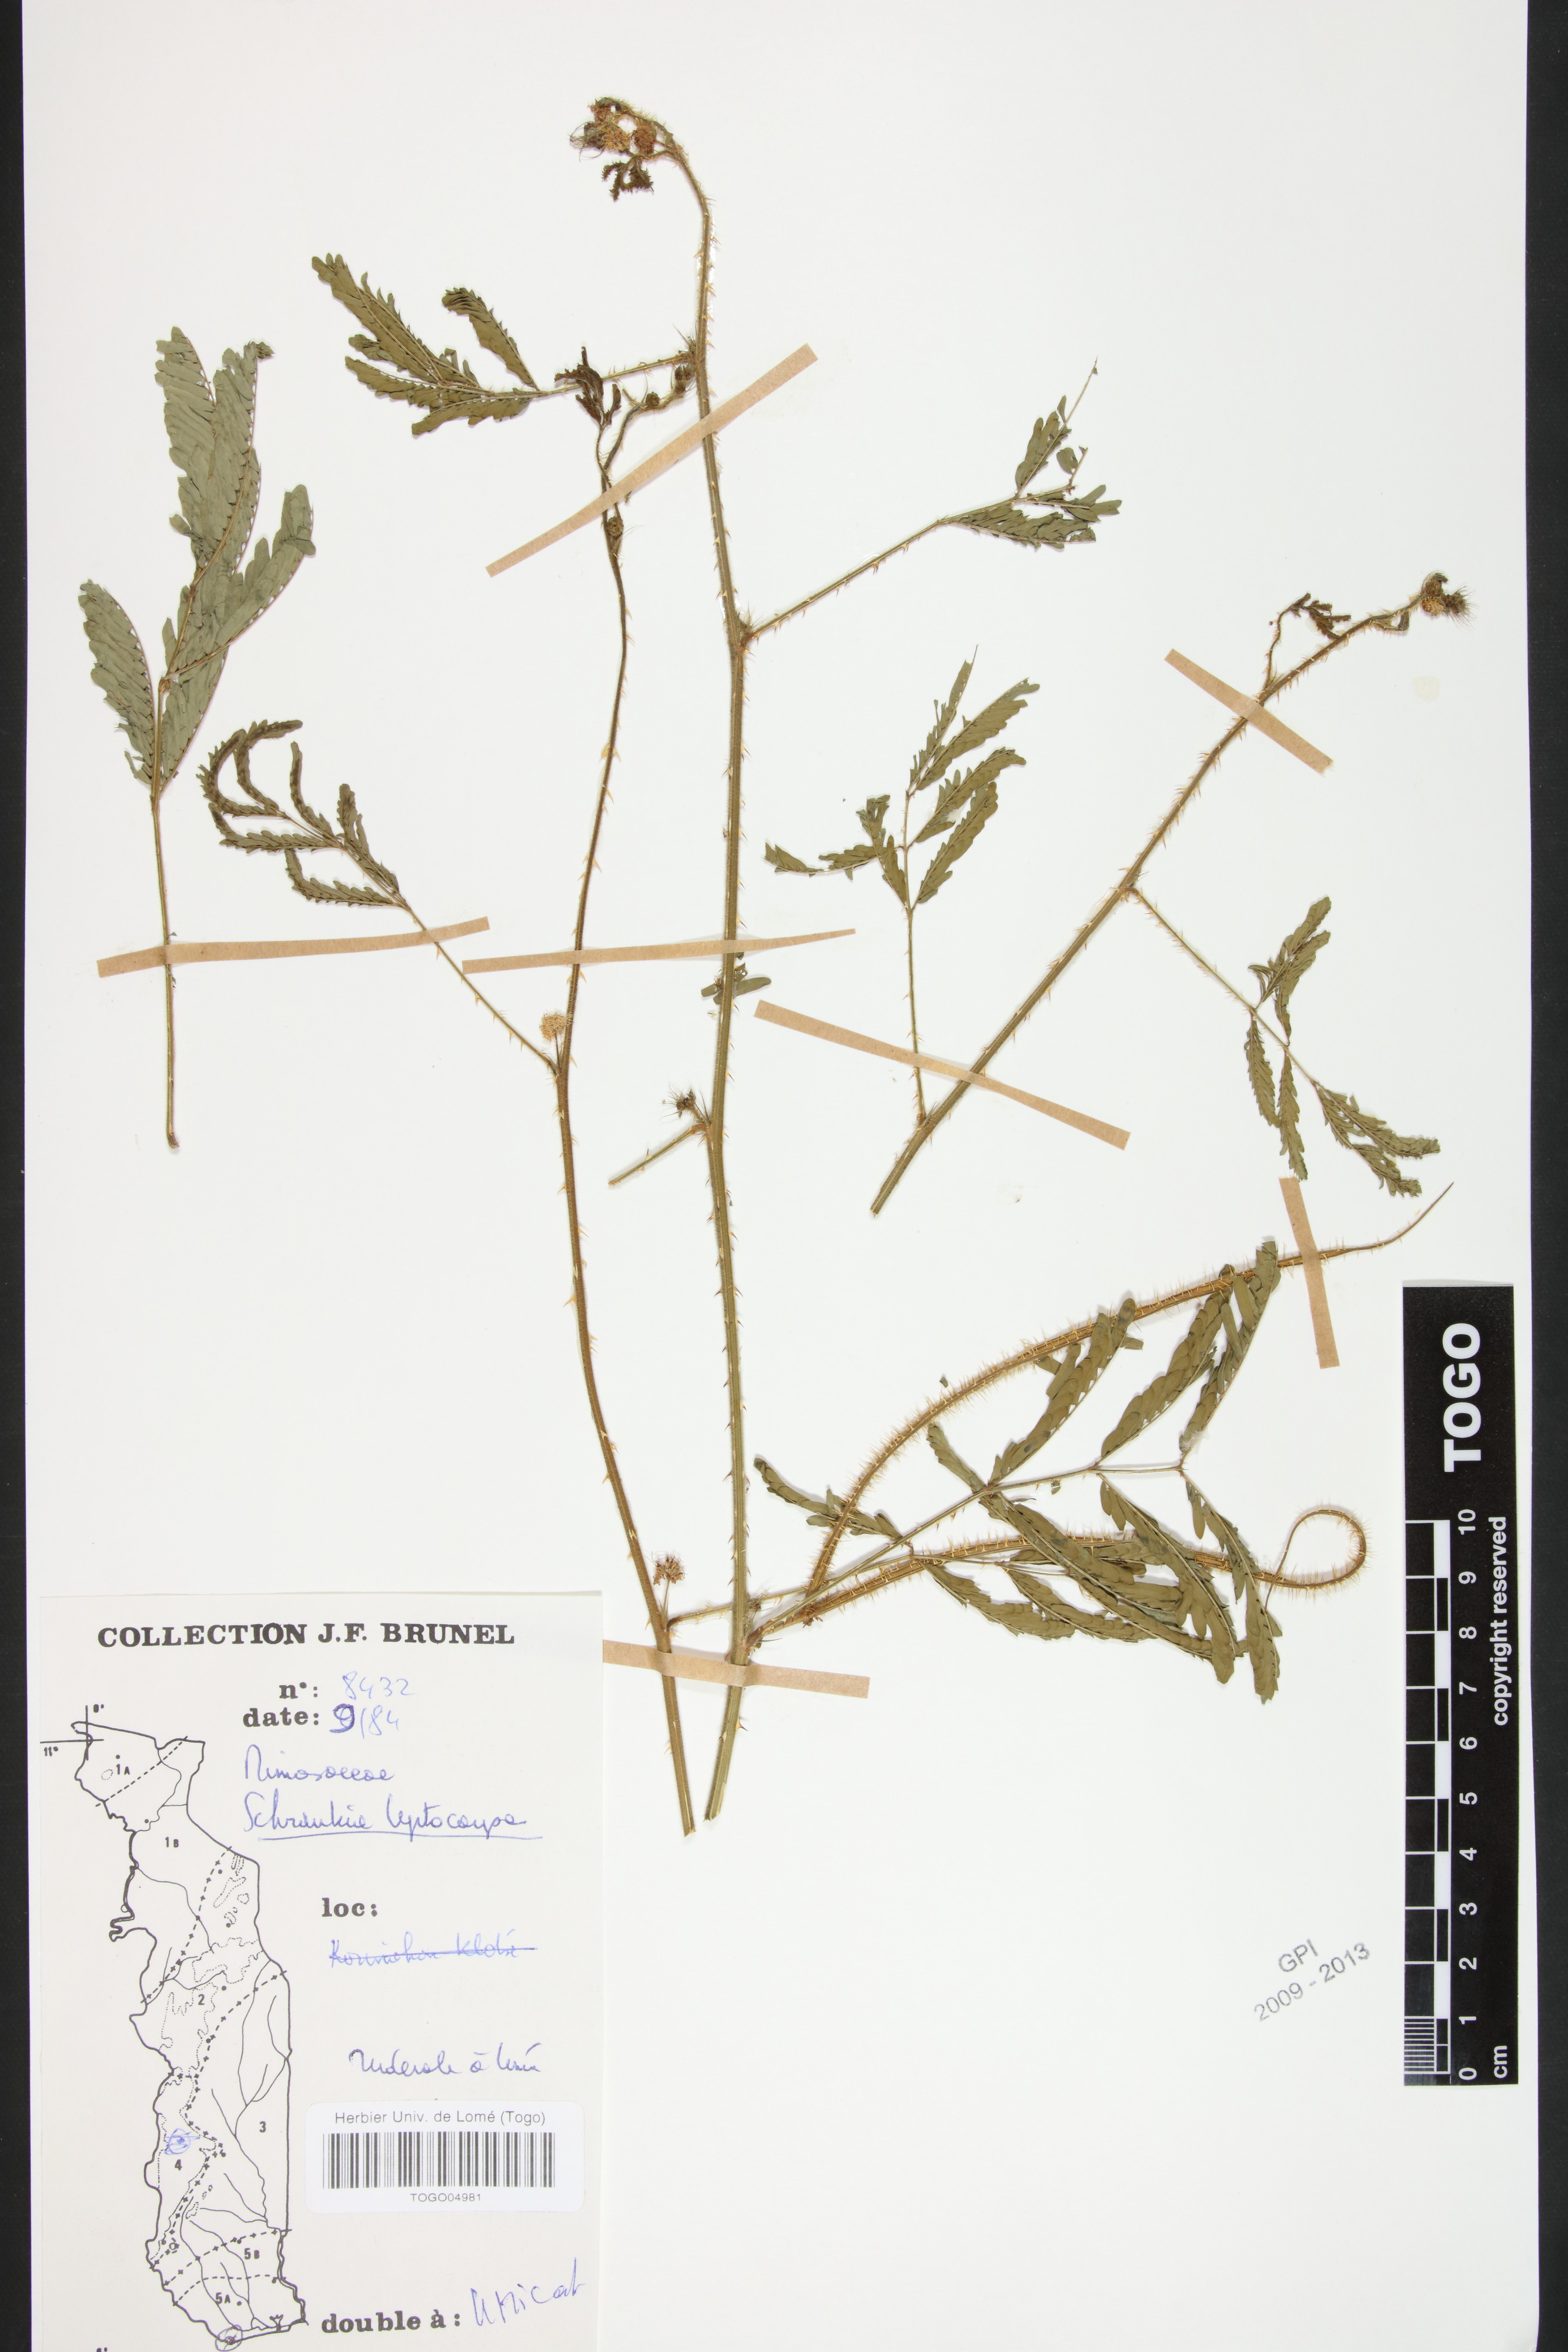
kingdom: Plantae
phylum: Tracheophyta
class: Magnoliopsida
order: Fabales
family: Fabaceae
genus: Mimosa
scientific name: Mimosa candollei
